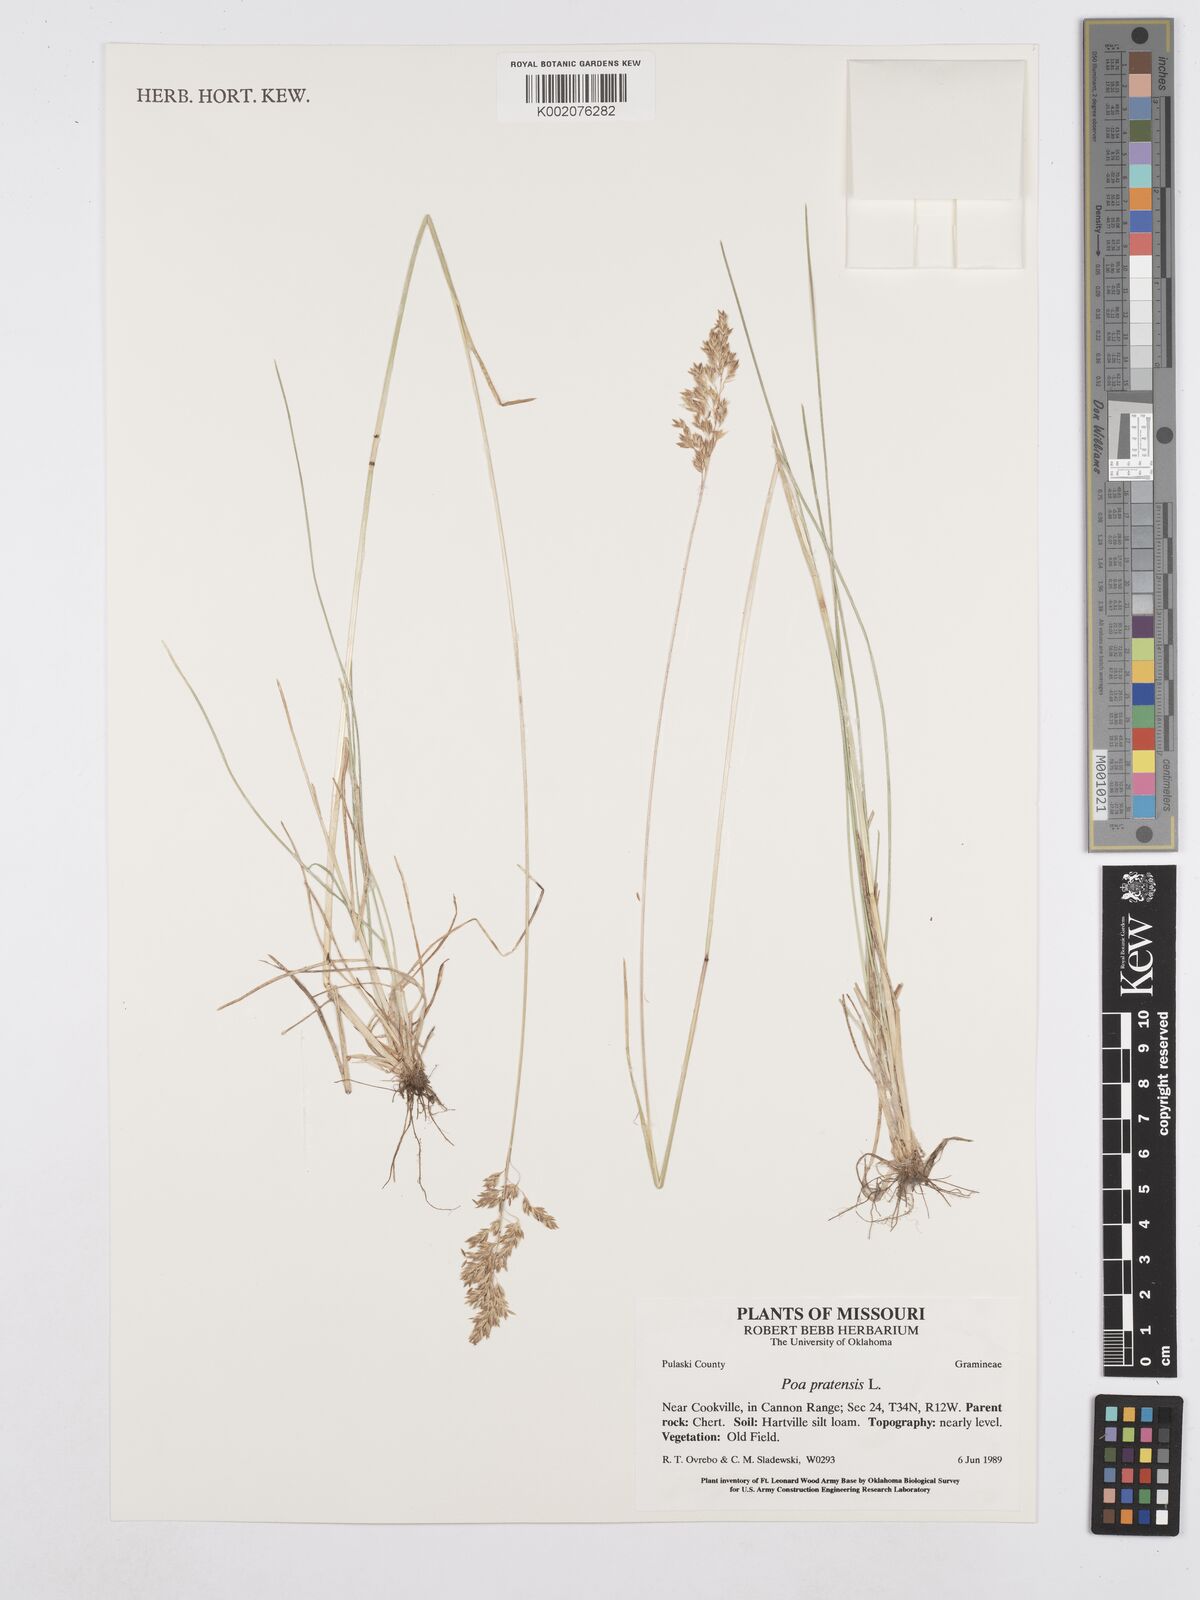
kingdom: Plantae
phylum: Tracheophyta
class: Liliopsida
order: Poales
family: Poaceae
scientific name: Poaceae
